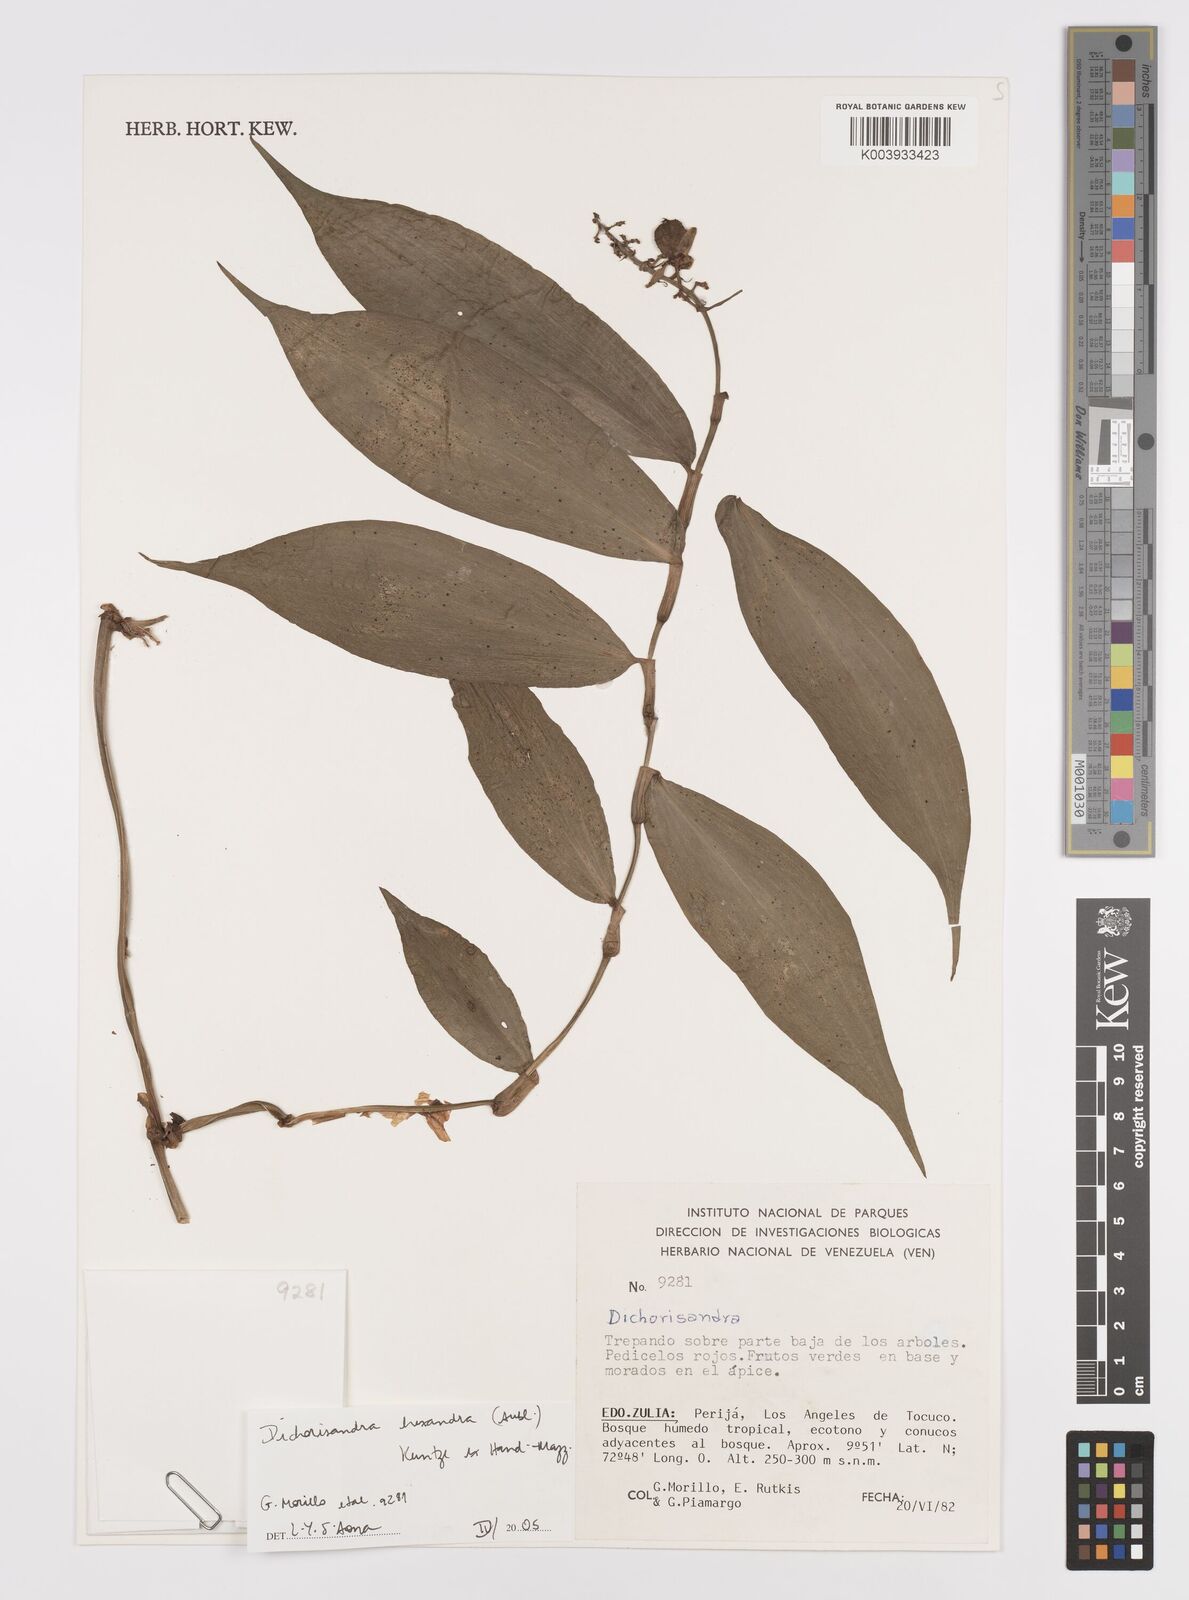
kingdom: Plantae
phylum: Tracheophyta
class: Liliopsida
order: Commelinales
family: Commelinaceae
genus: Dichorisandra
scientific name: Dichorisandra hexandra
